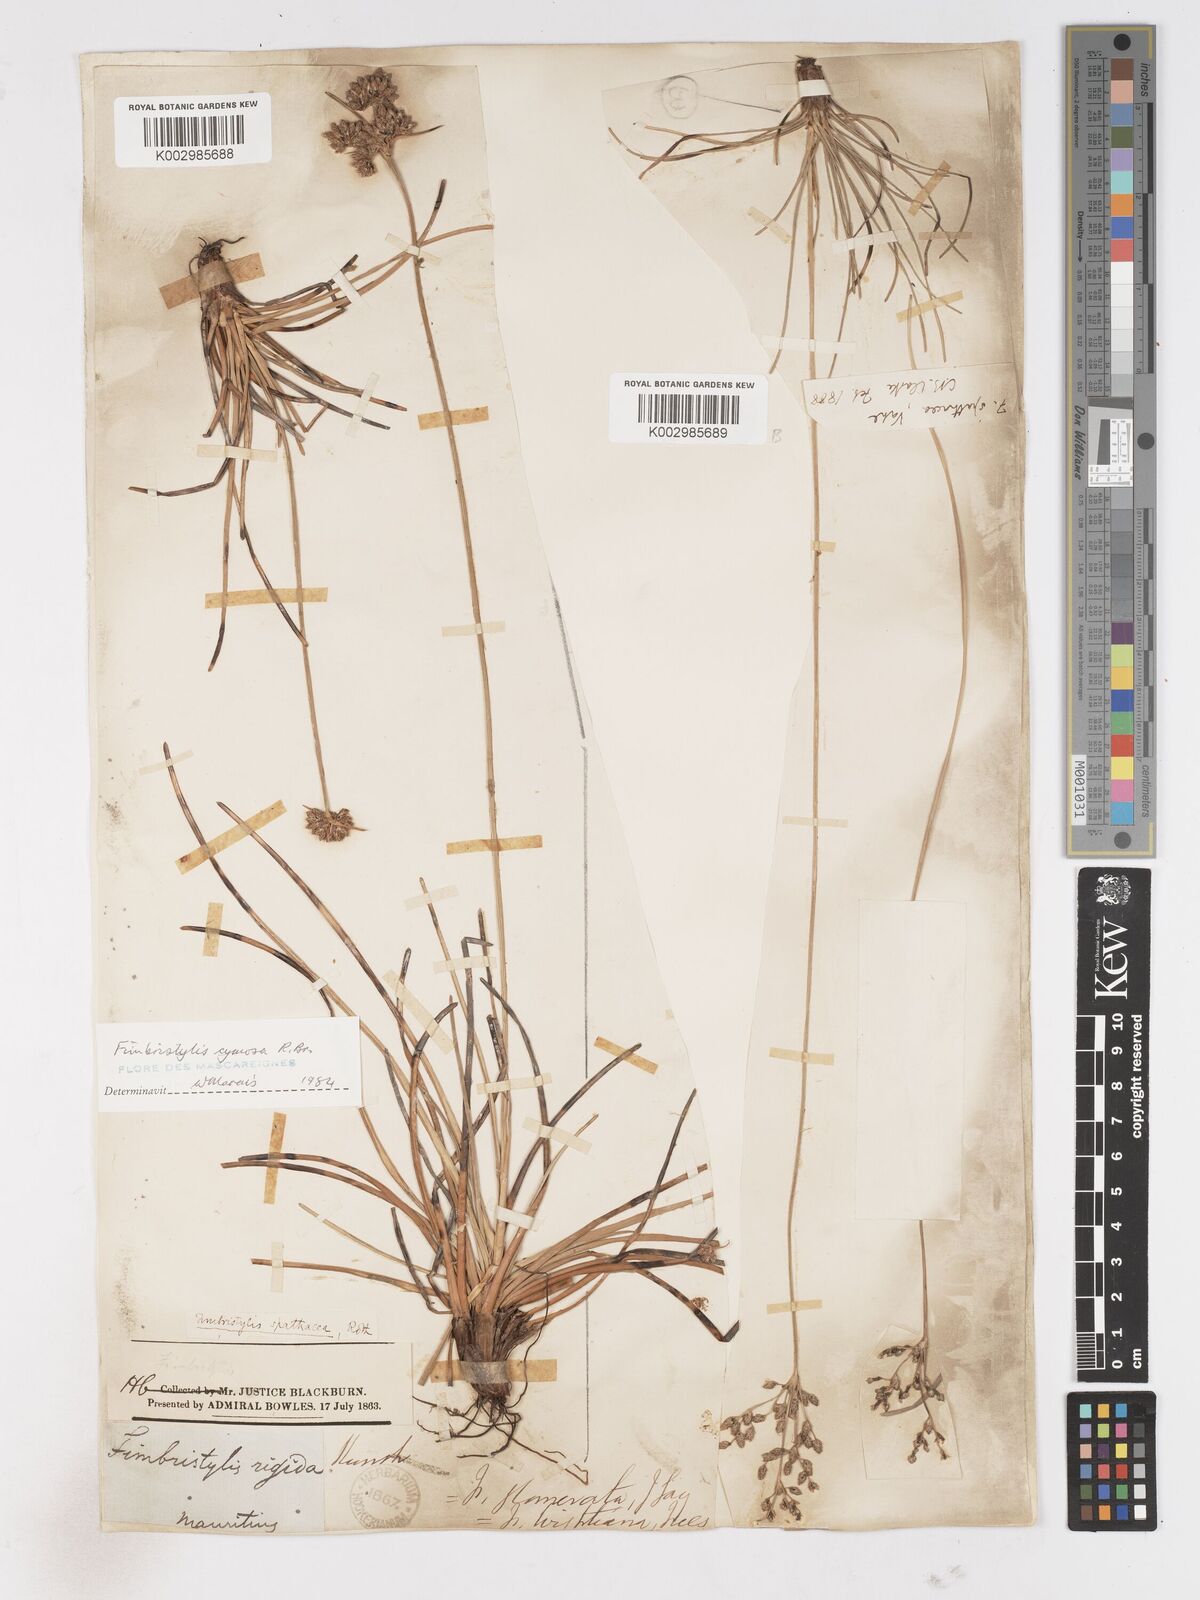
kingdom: Plantae
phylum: Tracheophyta
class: Liliopsida
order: Poales
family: Cyperaceae
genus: Fimbristylis
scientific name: Fimbristylis cymosa
